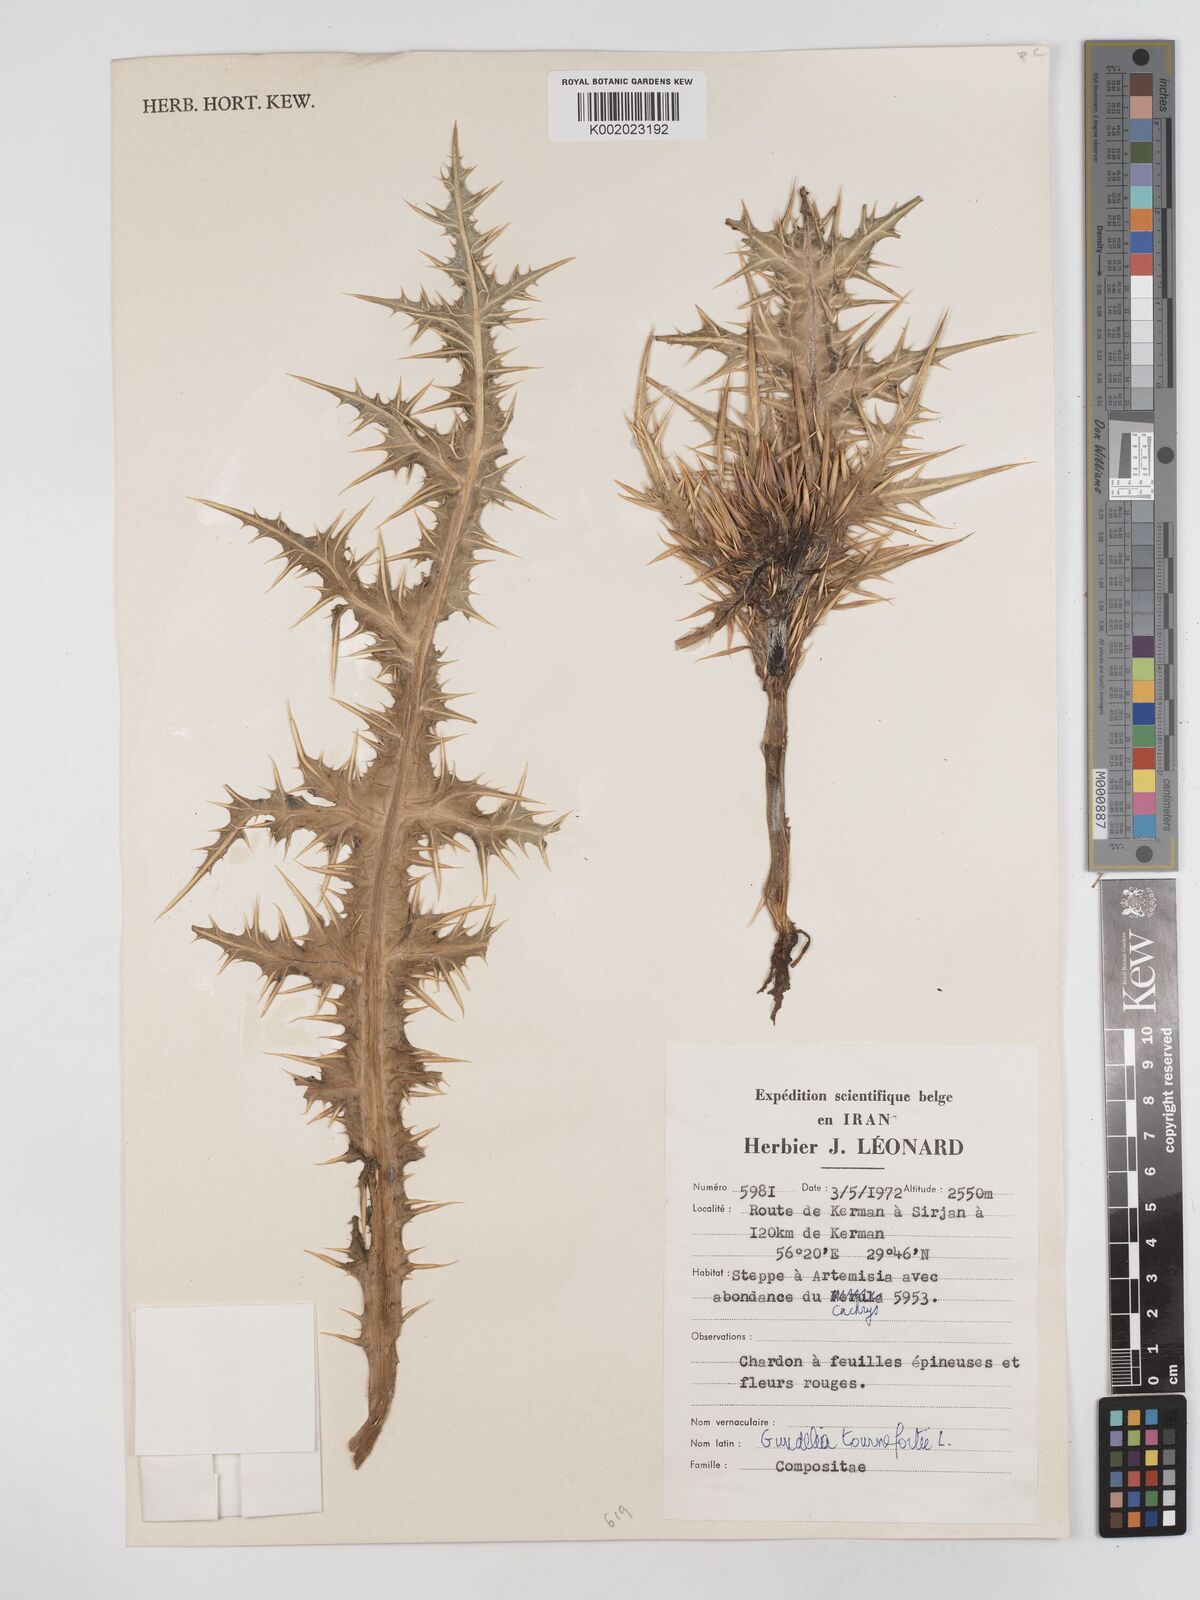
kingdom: Plantae
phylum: Tracheophyta
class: Magnoliopsida
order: Asterales
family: Asteraceae
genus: Gundelia
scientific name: Gundelia tournefortii
